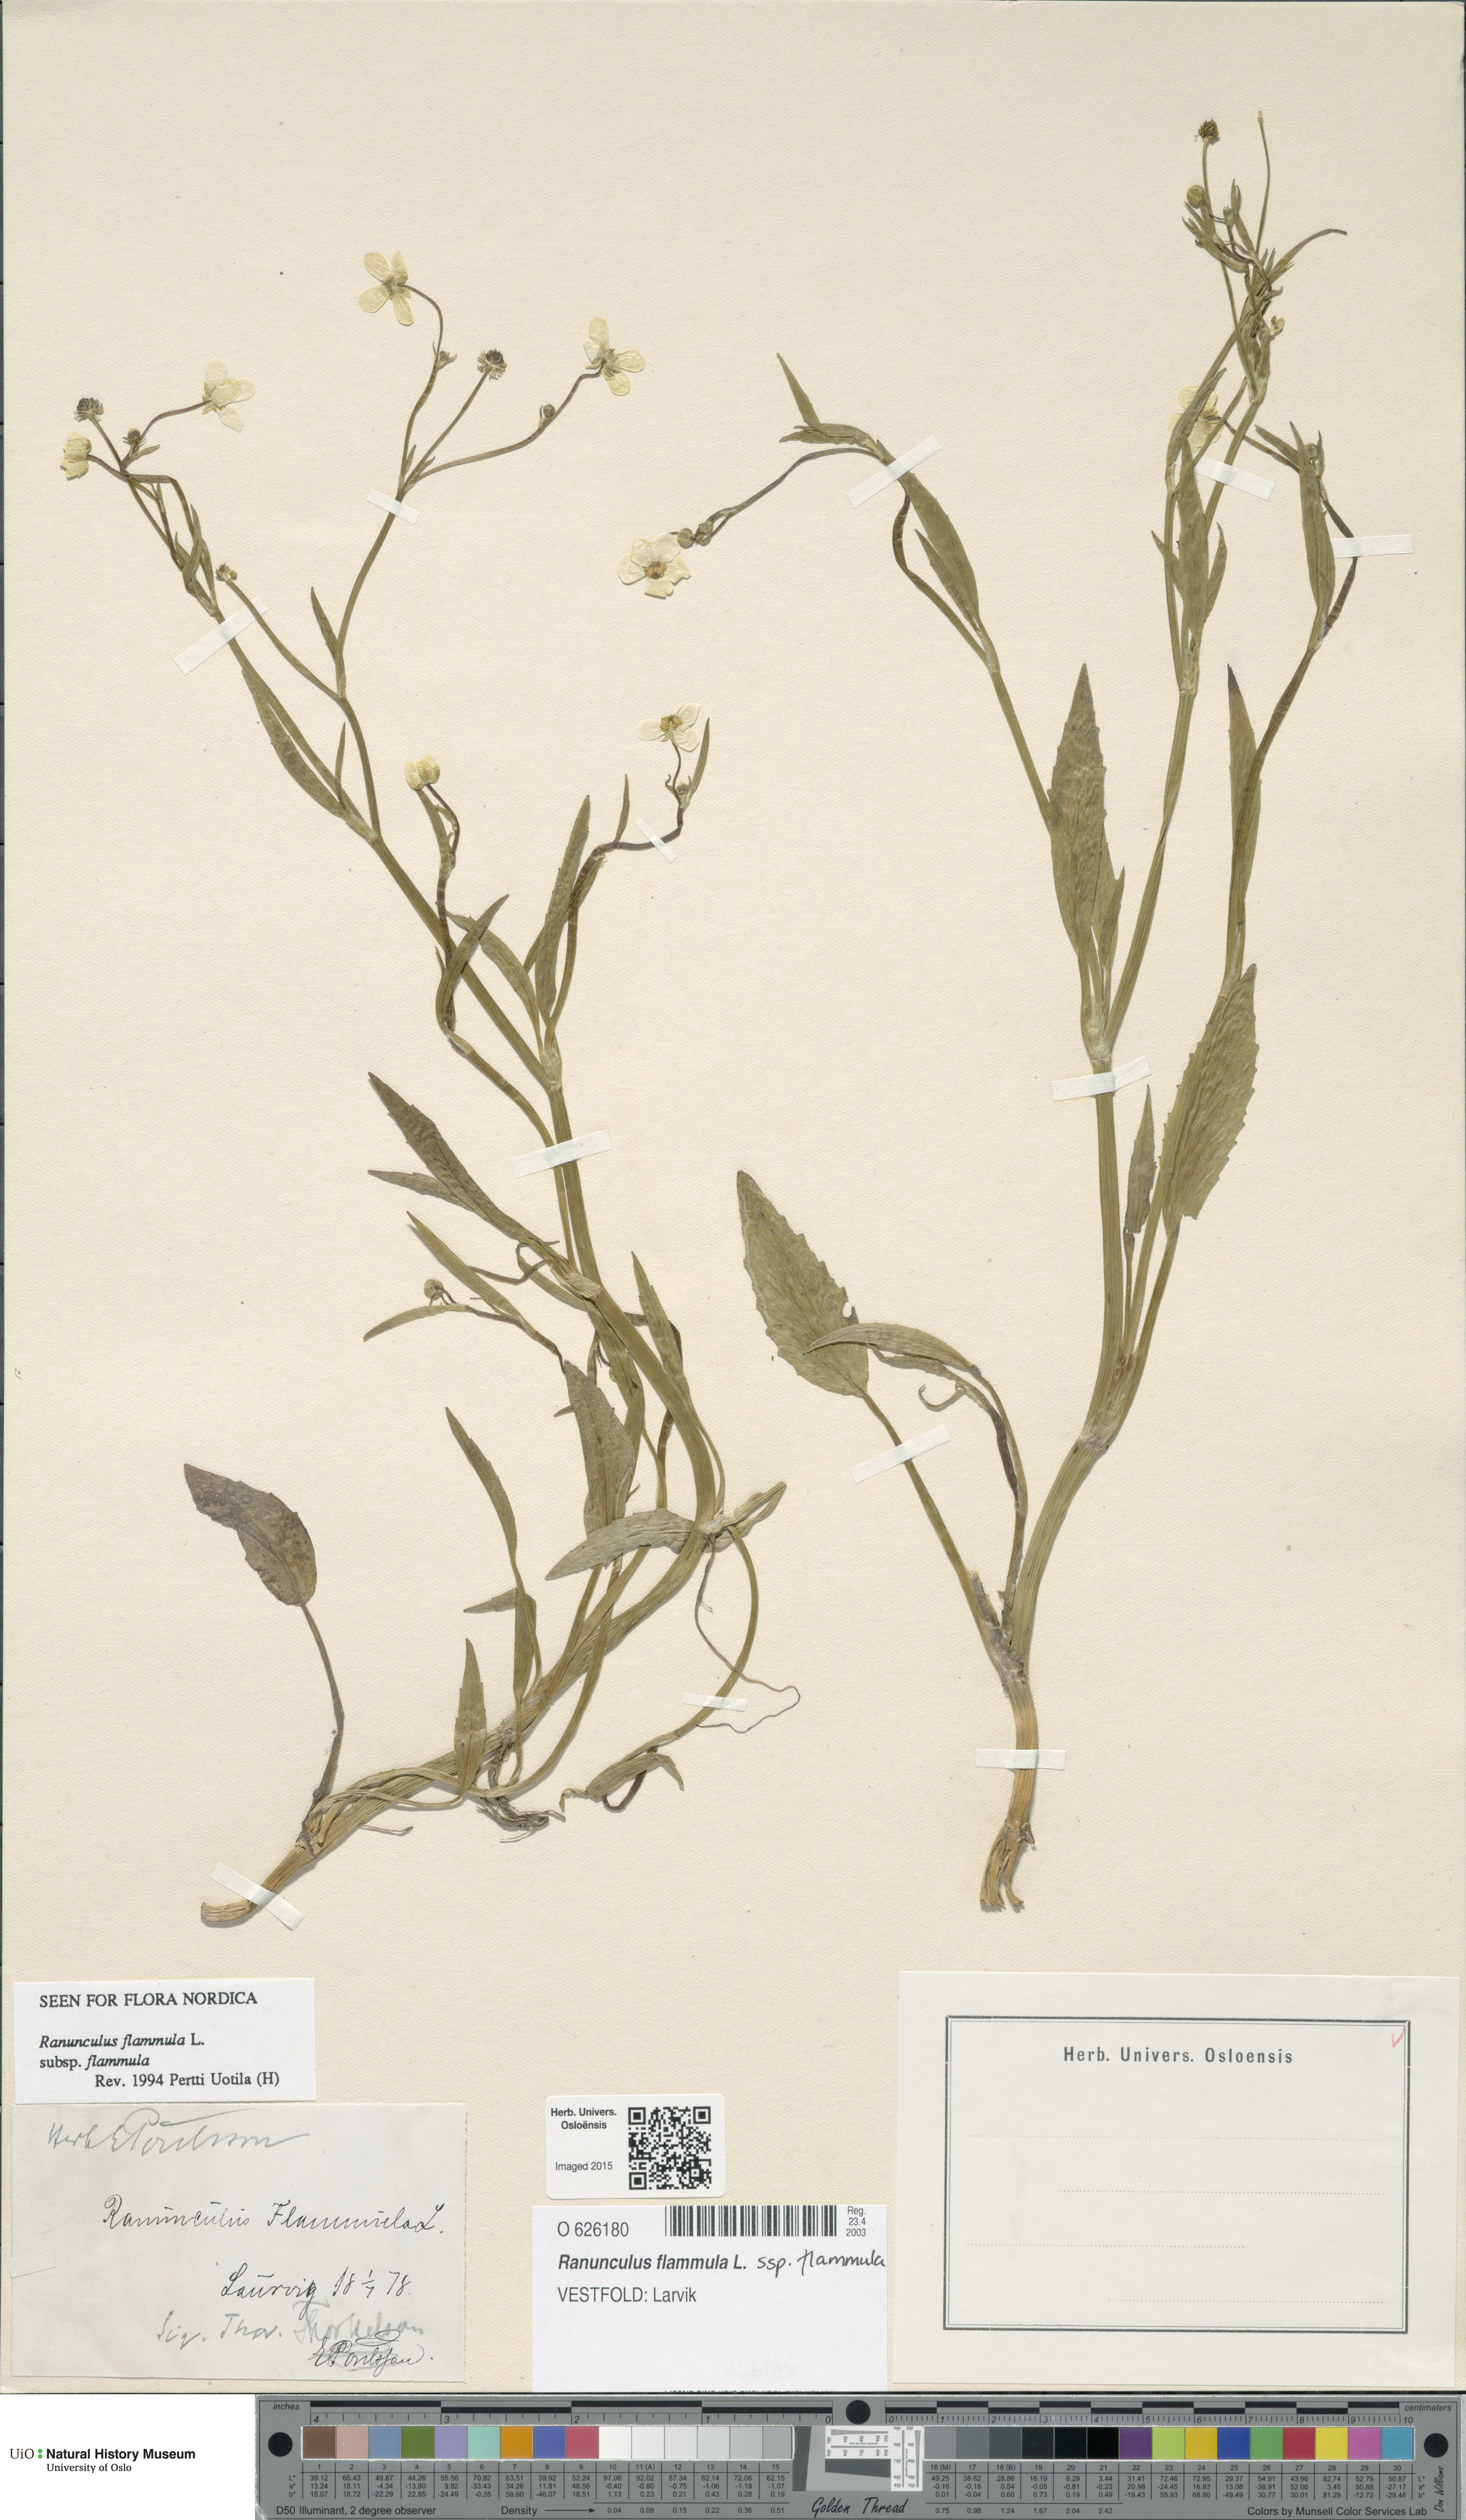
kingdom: Plantae
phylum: Tracheophyta
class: Magnoliopsida
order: Ranunculales
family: Ranunculaceae
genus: Ranunculus
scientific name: Ranunculus flammula
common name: Lesser spearwort
